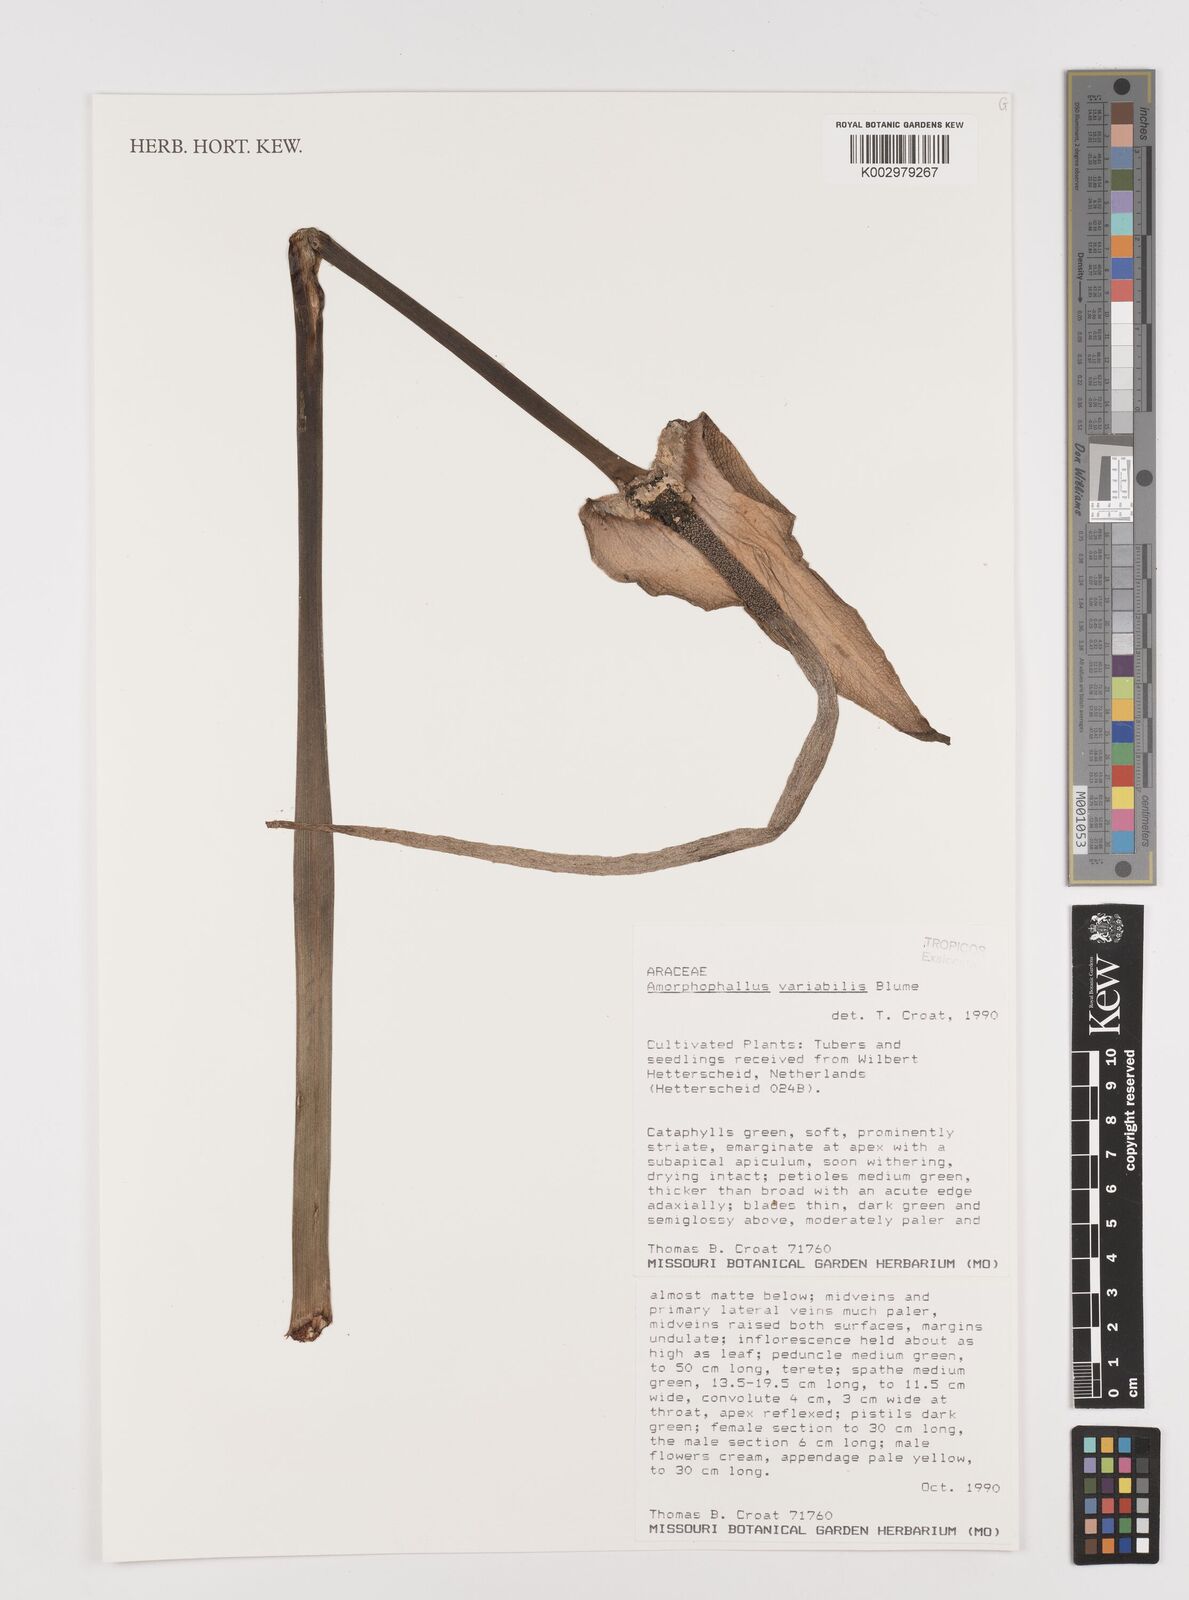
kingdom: Plantae
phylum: Tracheophyta
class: Liliopsida
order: Alismatales
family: Araceae
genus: Amorphophallus
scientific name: Amorphophallus variabilis
